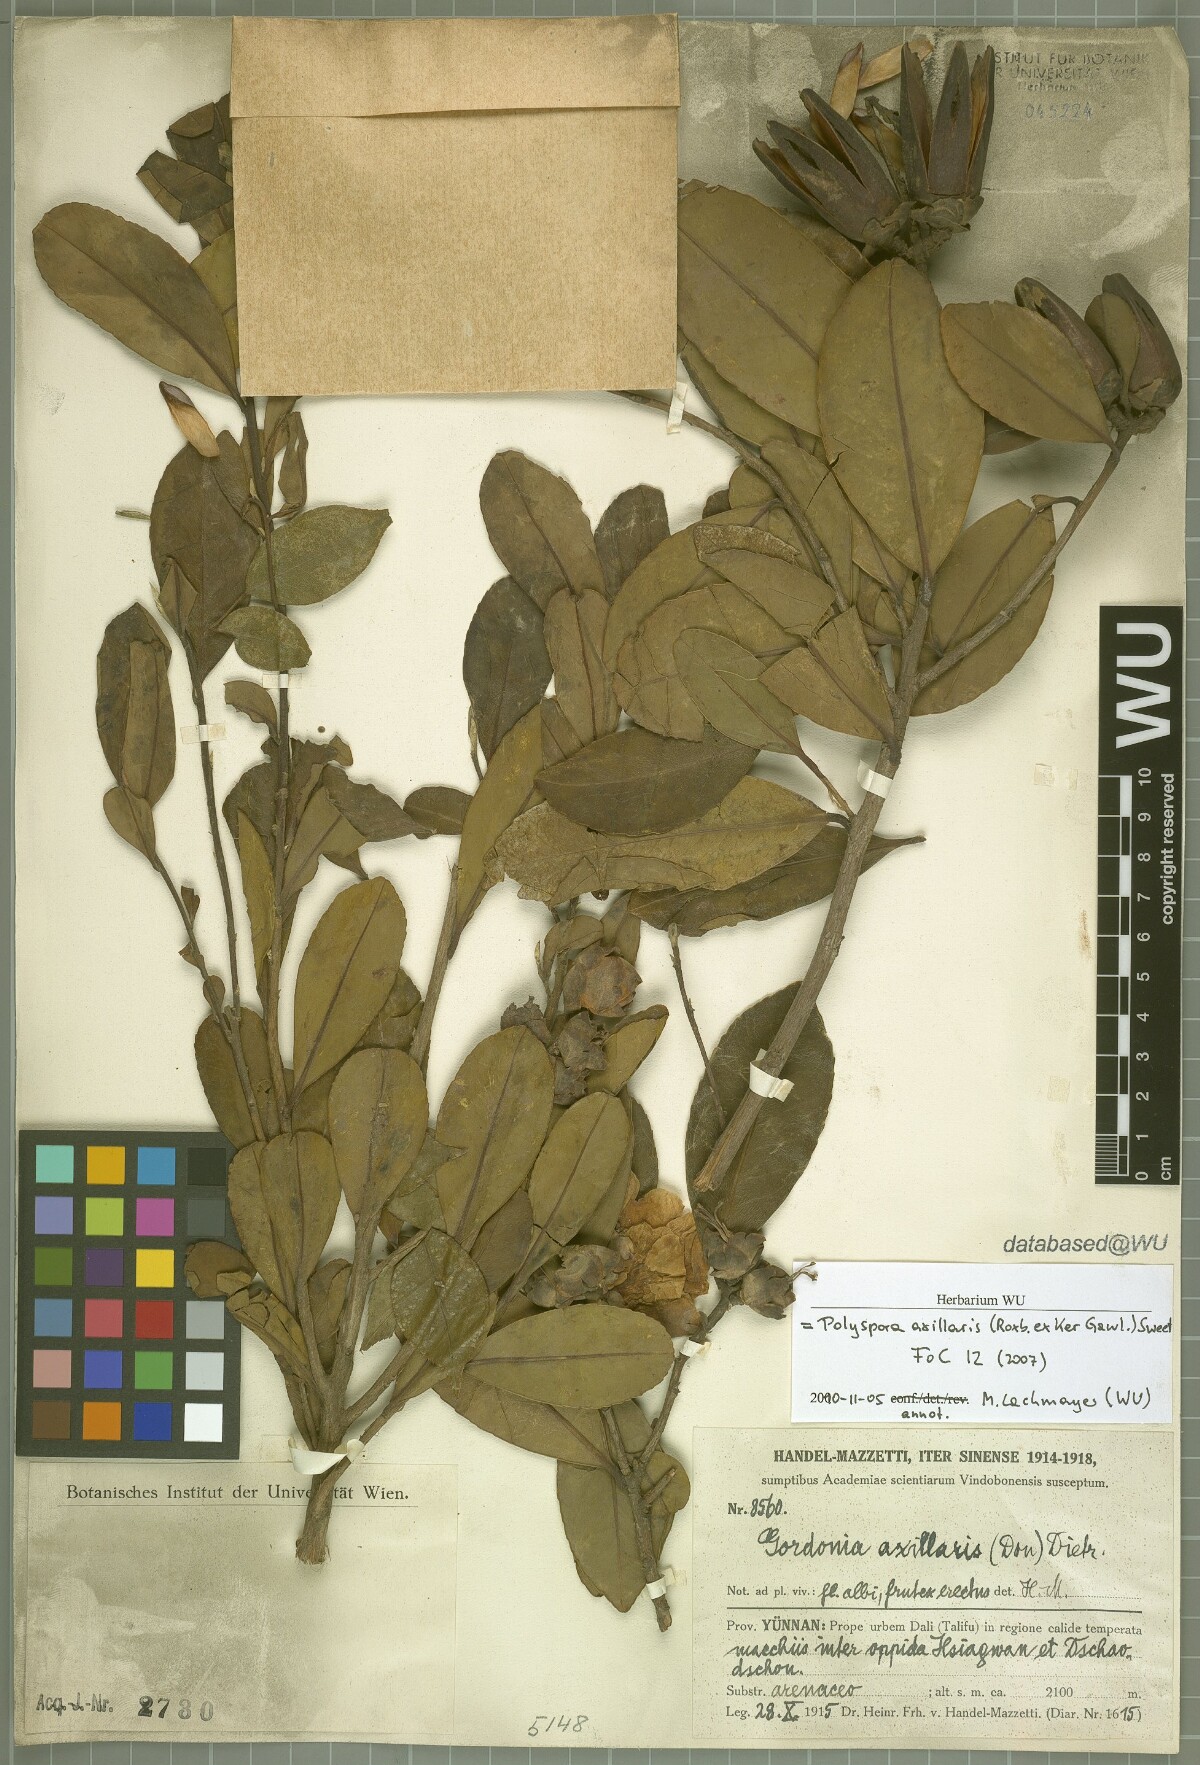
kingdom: Plantae
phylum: Tracheophyta
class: Magnoliopsida
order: Ericales
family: Theaceae
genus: Polyspora
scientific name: Polyspora axillaris
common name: Fried egg tree
